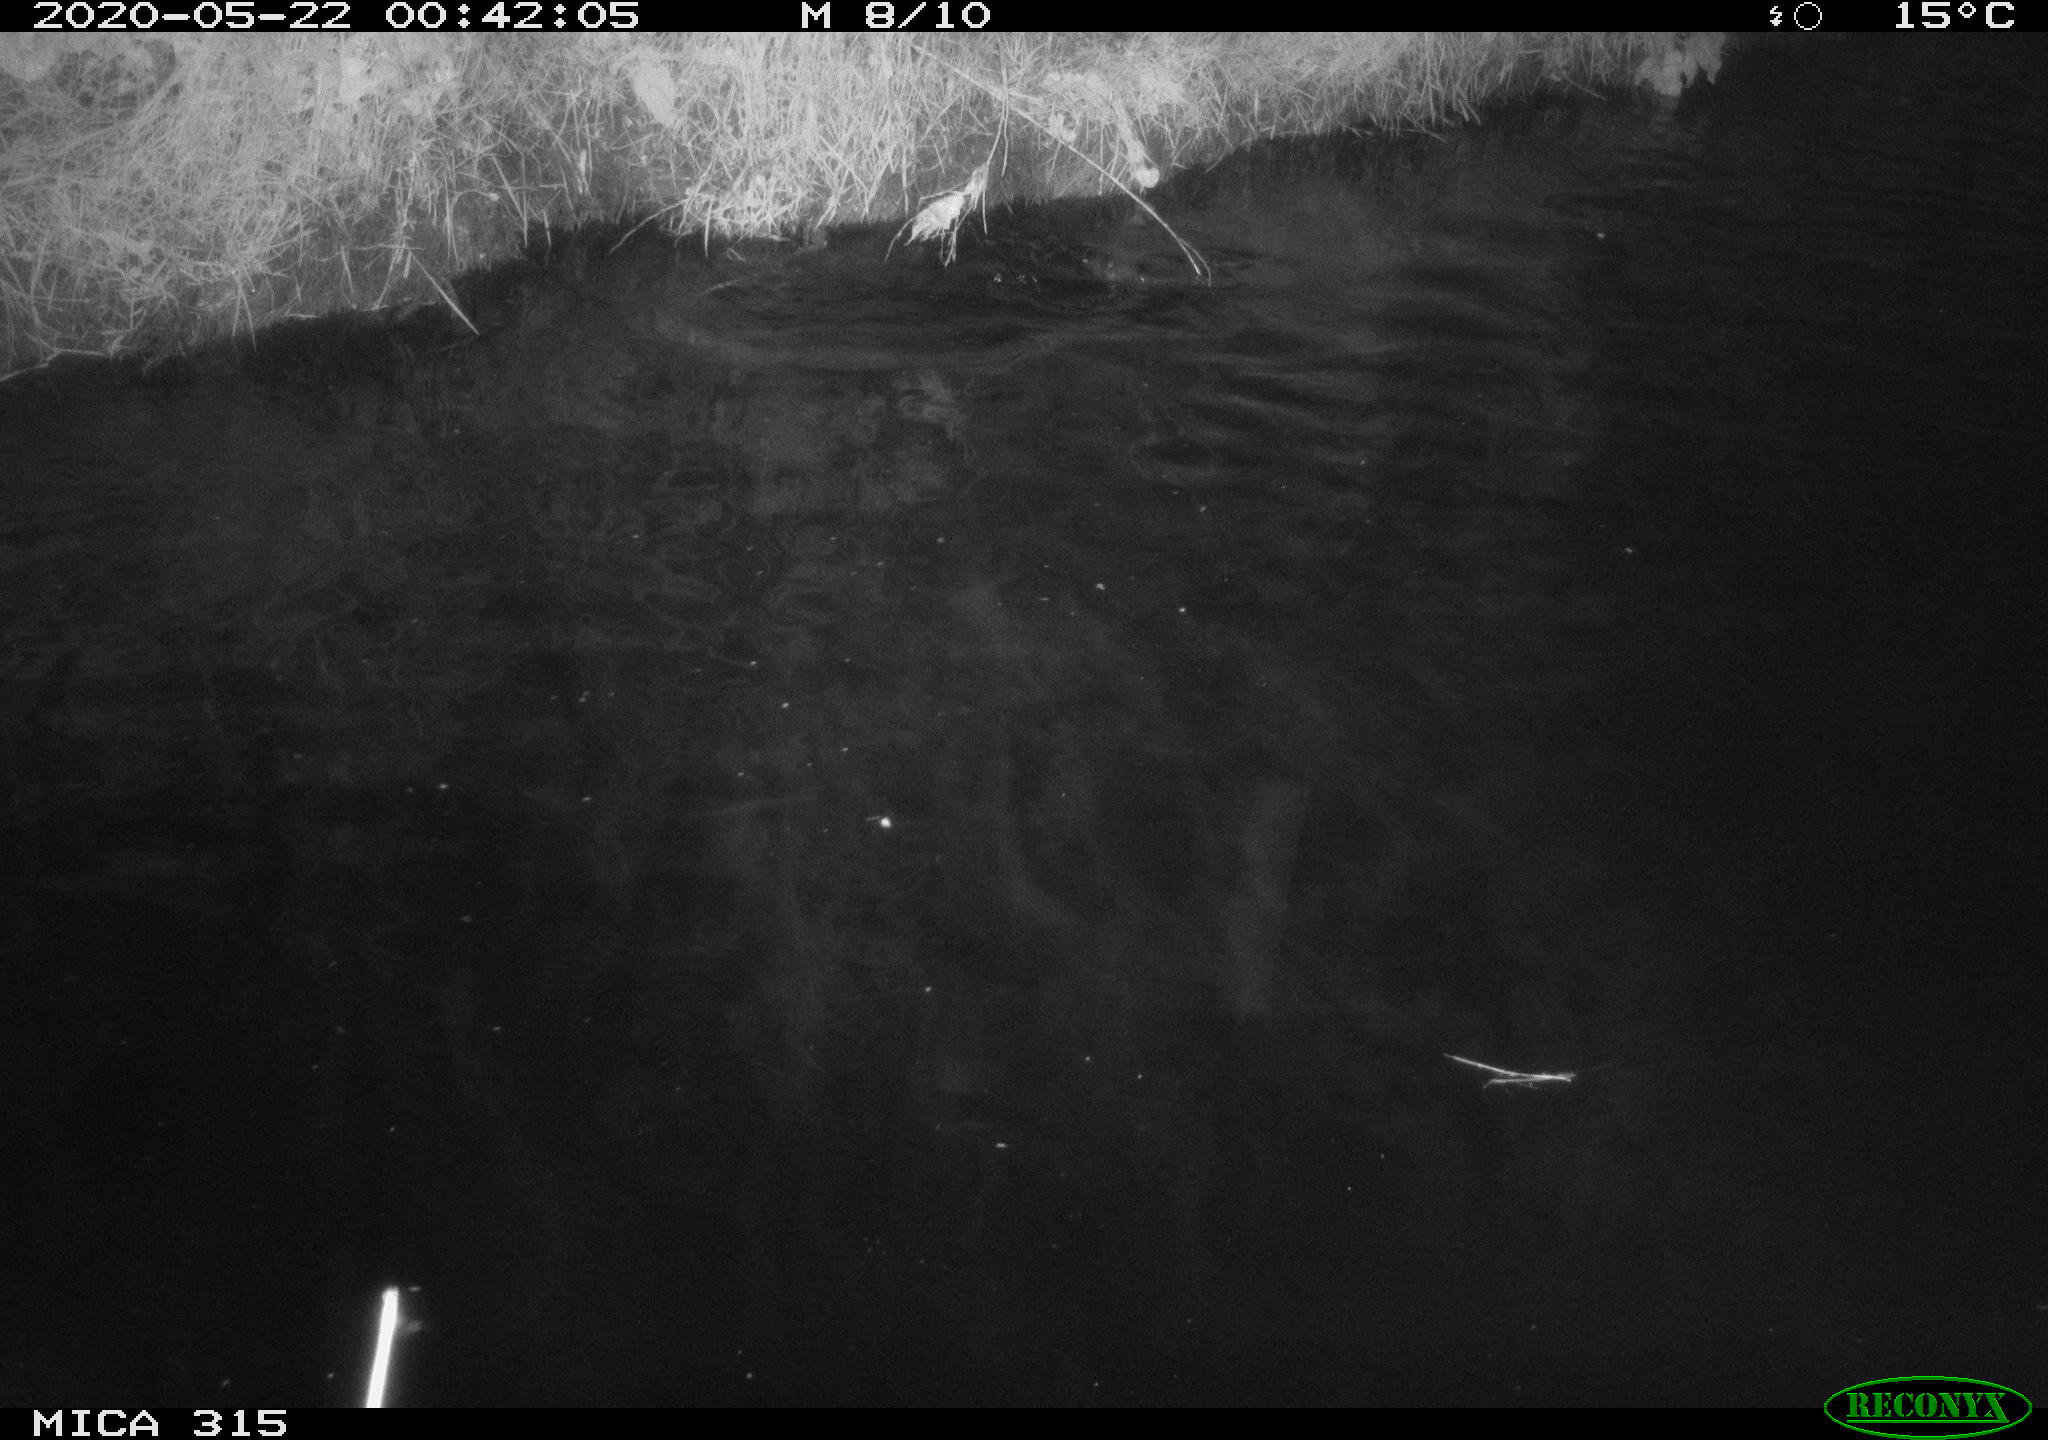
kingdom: Animalia
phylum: Chordata
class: Aves
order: Anseriformes
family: Anatidae
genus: Anas
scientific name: Anas platyrhynchos
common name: Mallard
